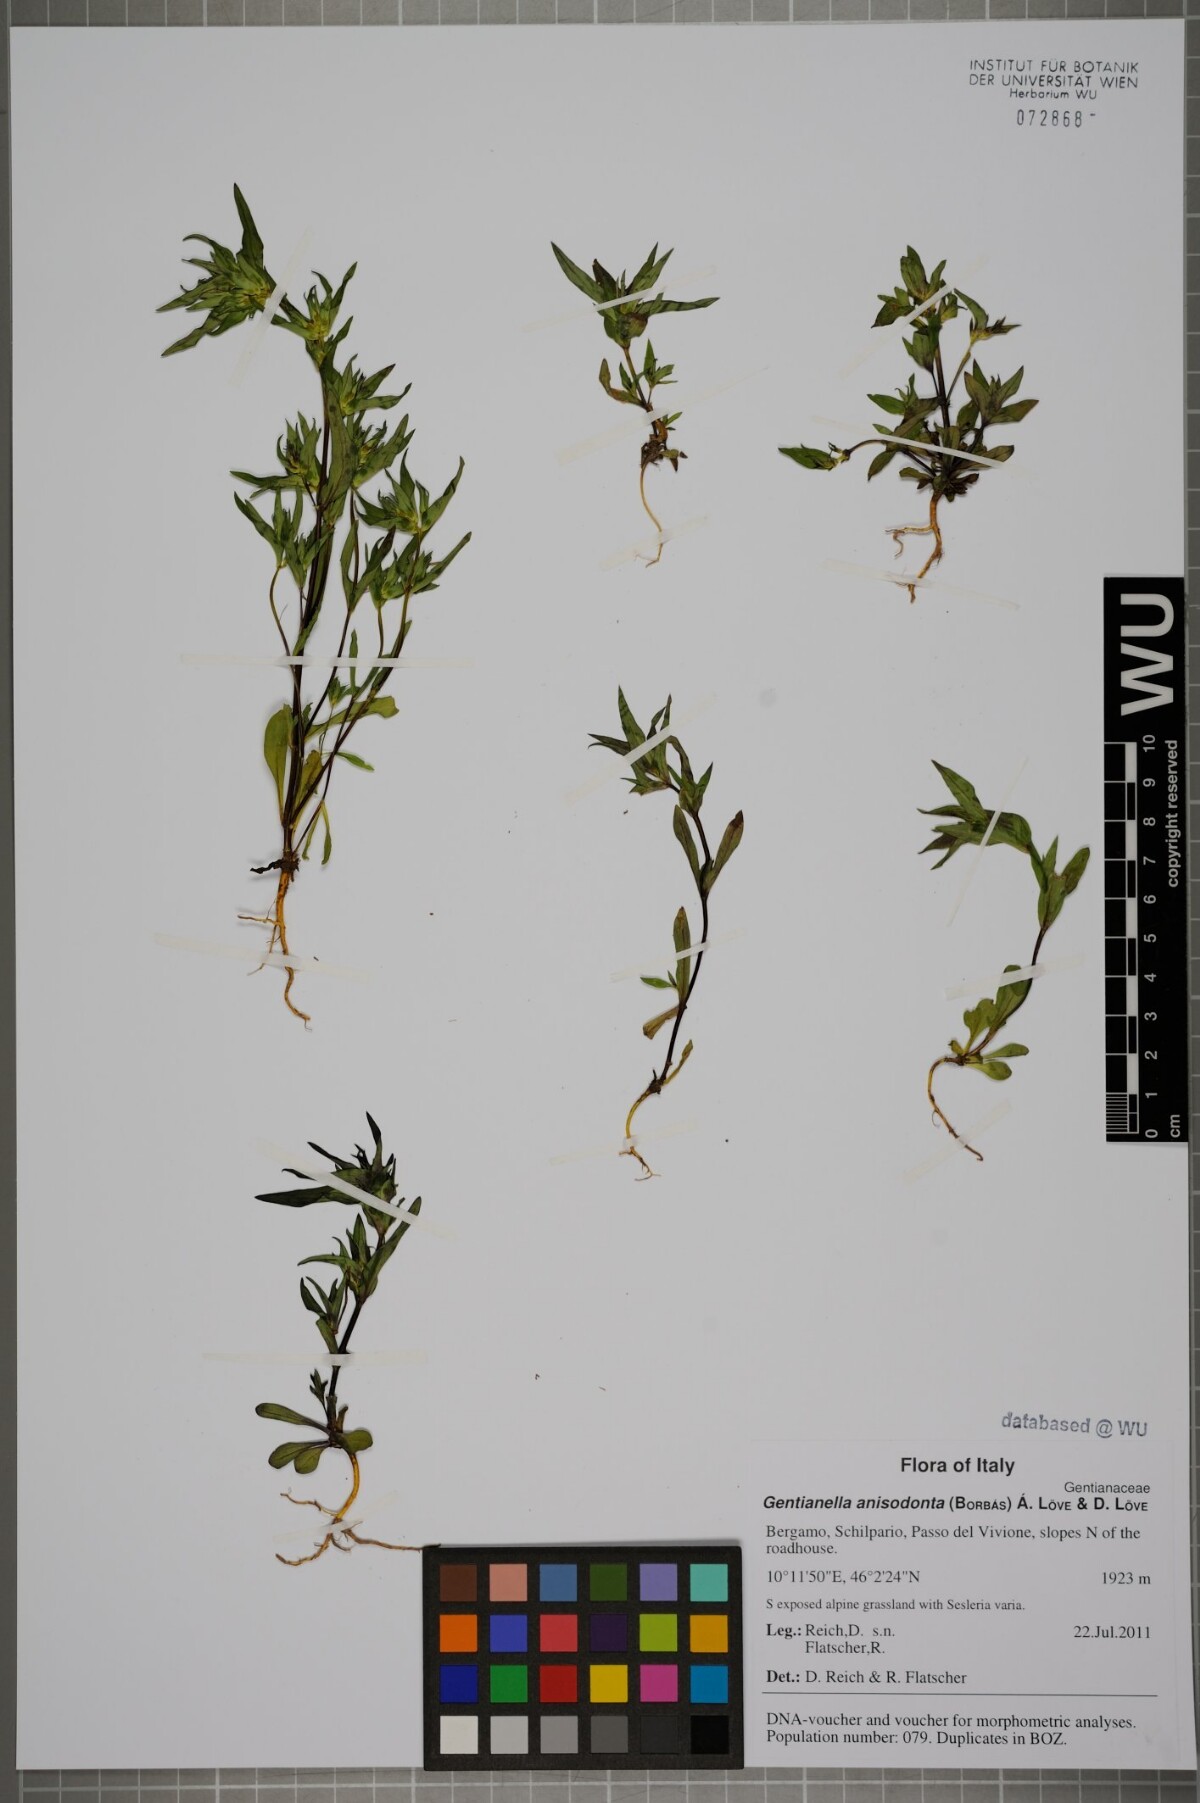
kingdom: Plantae
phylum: Tracheophyta
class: Magnoliopsida
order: Gentianales
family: Gentianaceae
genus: Gentianella
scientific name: Gentianella anisodonta
